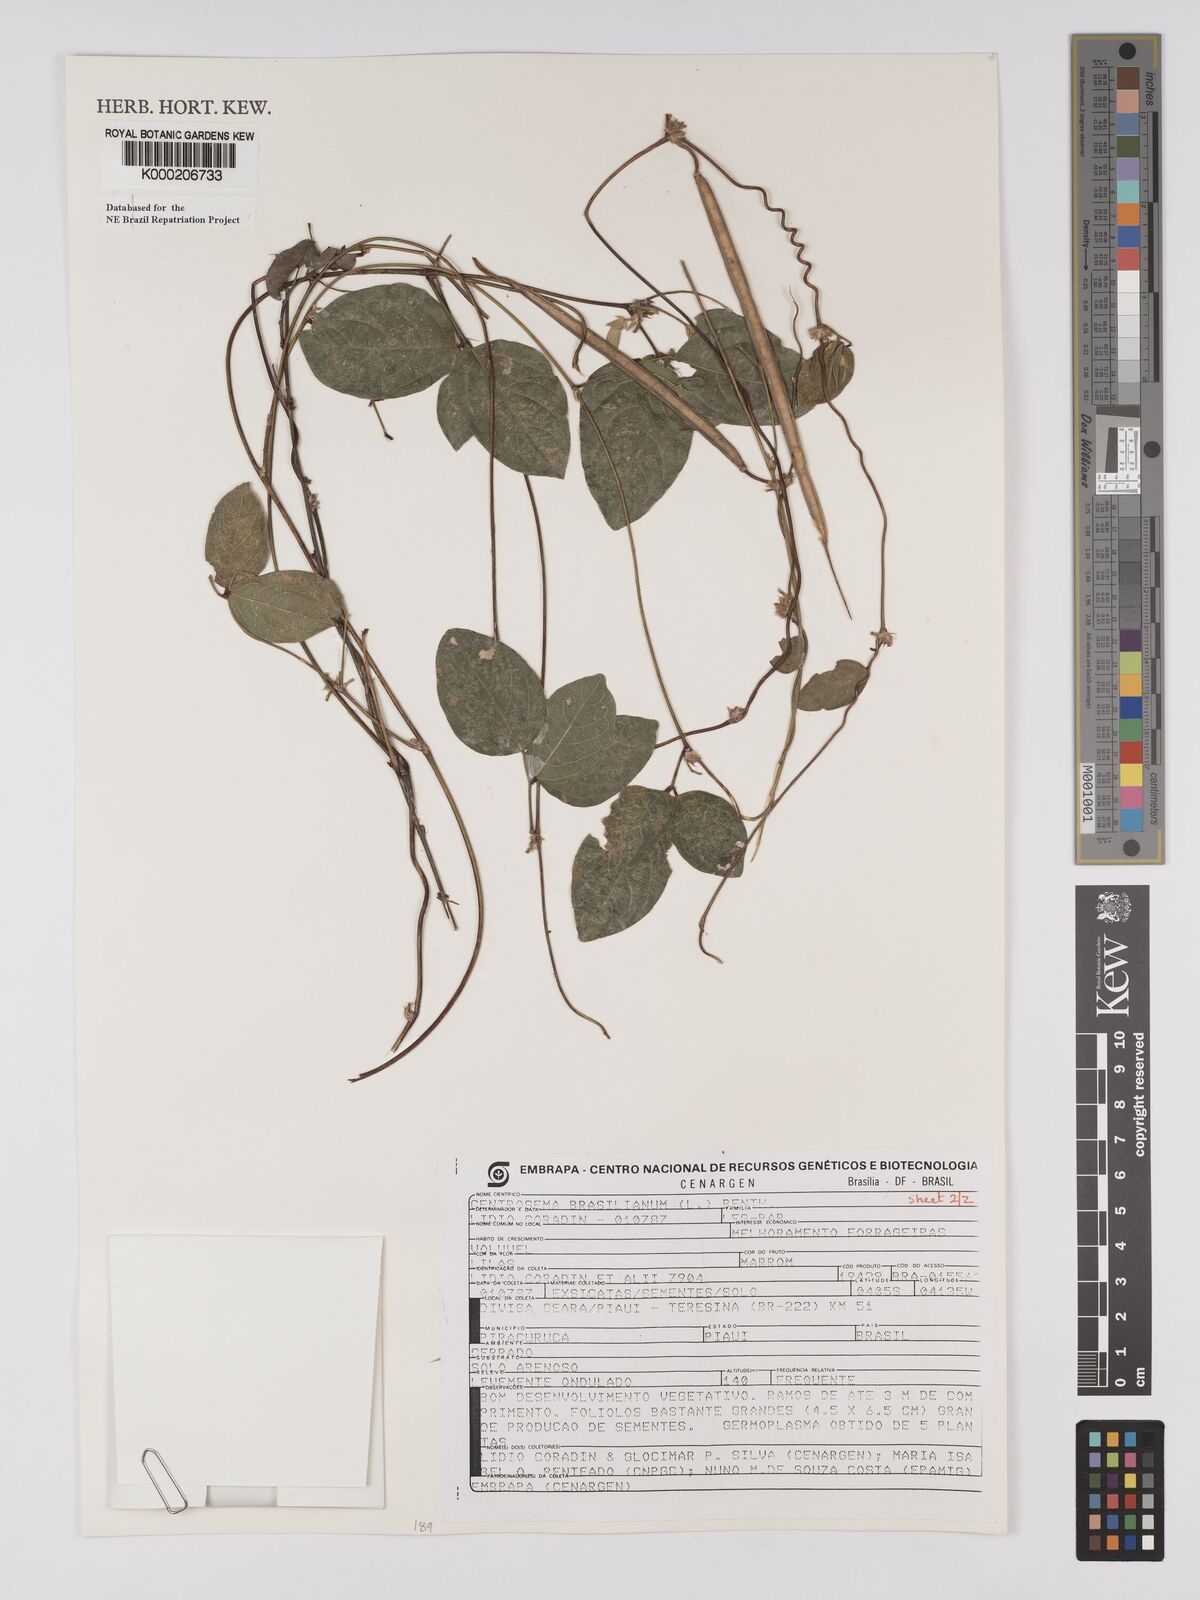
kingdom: Plantae
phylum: Tracheophyta
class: Magnoliopsida
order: Fabales
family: Fabaceae
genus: Centrosema
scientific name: Centrosema brasilianum
